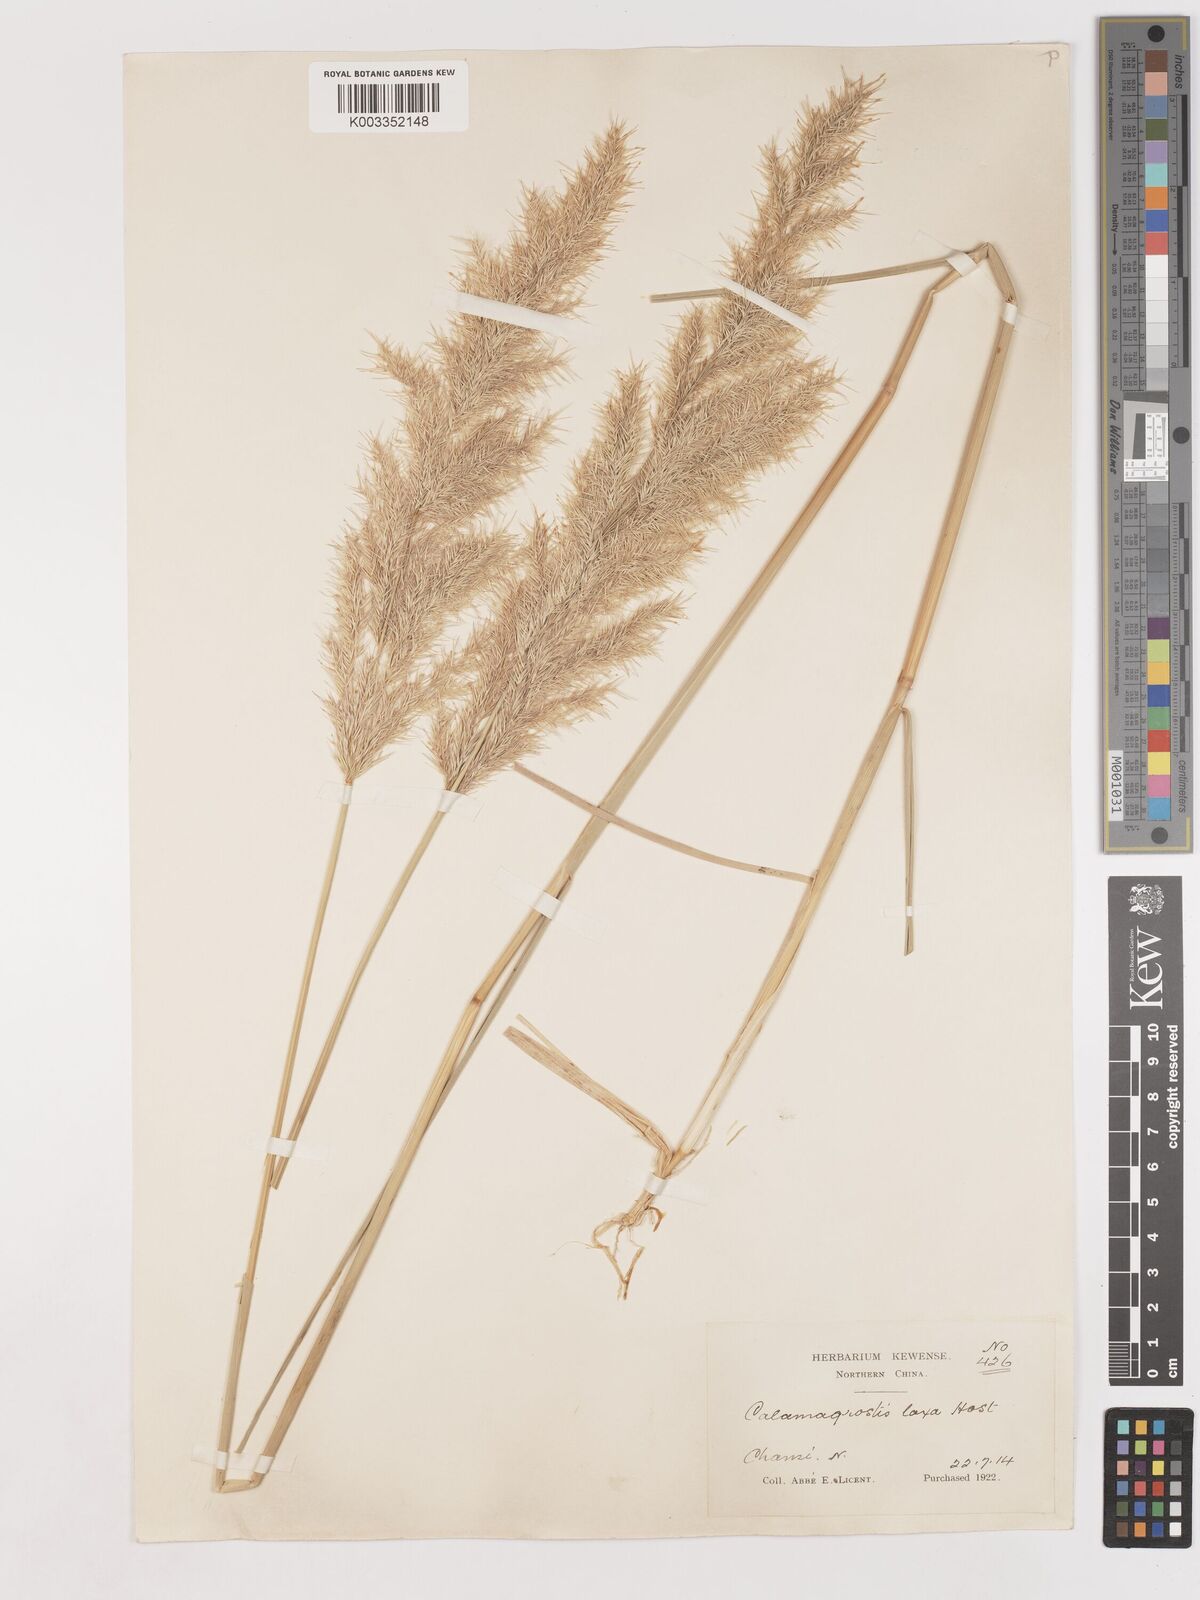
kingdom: Plantae
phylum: Tracheophyta
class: Liliopsida
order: Poales
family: Poaceae
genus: Calamagrostis
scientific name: Calamagrostis pseudophragmites
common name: Coastal small-reed
